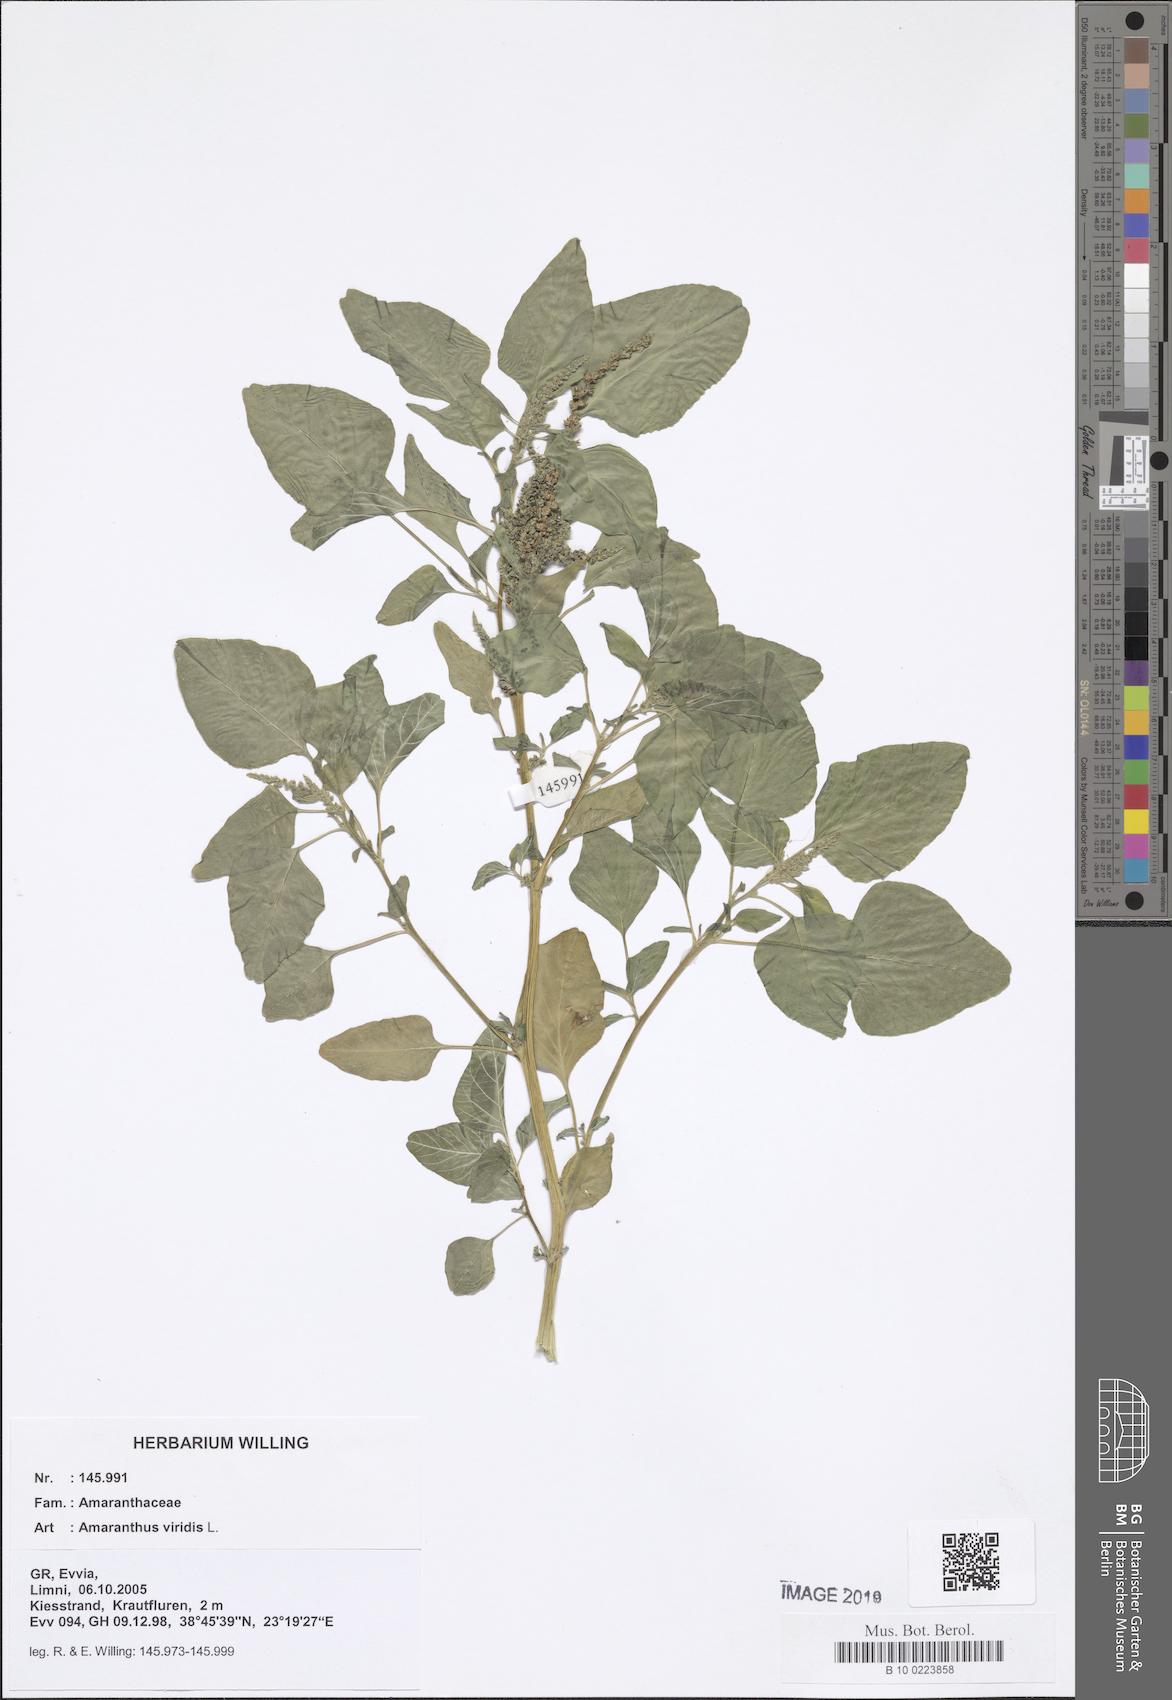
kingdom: Plantae
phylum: Tracheophyta
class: Magnoliopsida
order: Caryophyllales
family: Amaranthaceae
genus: Amaranthus
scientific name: Amaranthus viridis
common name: Slender amaranth
